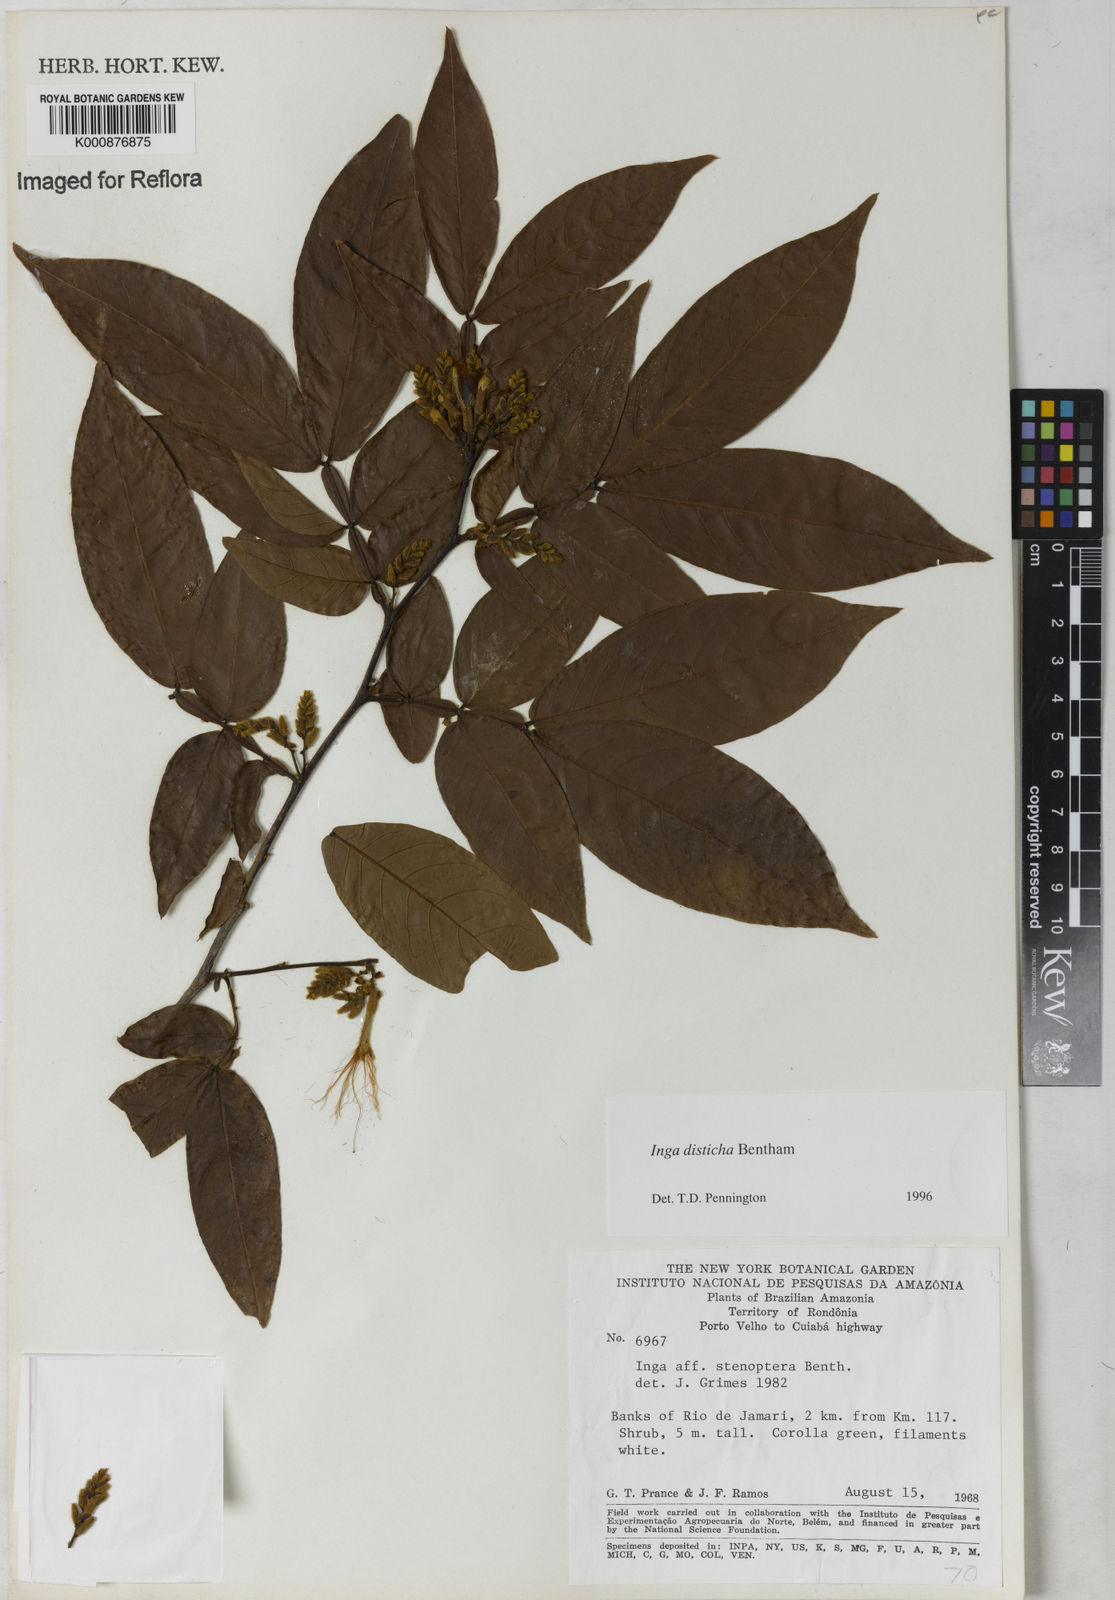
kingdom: Plantae
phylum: Tracheophyta
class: Magnoliopsida
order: Fabales
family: Fabaceae
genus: Inga
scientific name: Inga disticha
